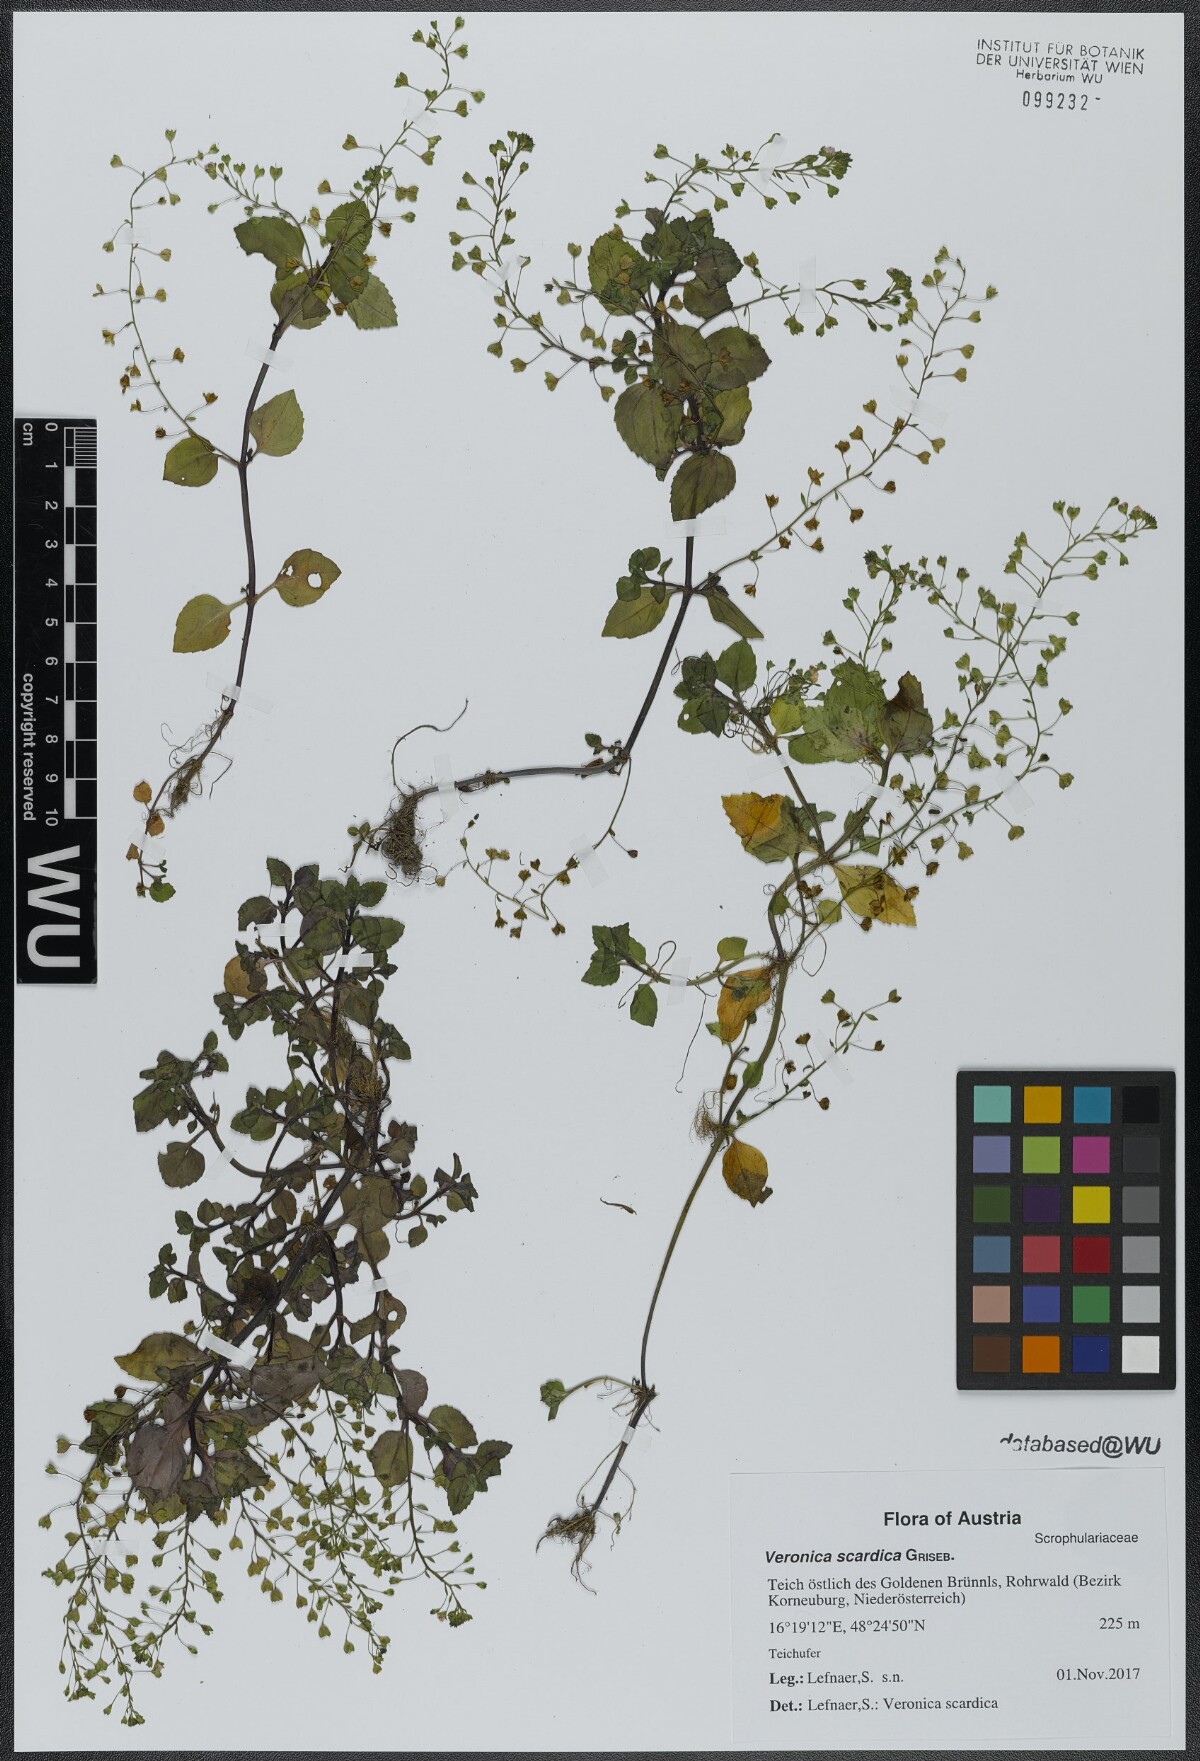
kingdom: Plantae
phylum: Tracheophyta
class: Magnoliopsida
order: Lamiales
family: Plantaginaceae
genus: Veronica
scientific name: Veronica scardica
